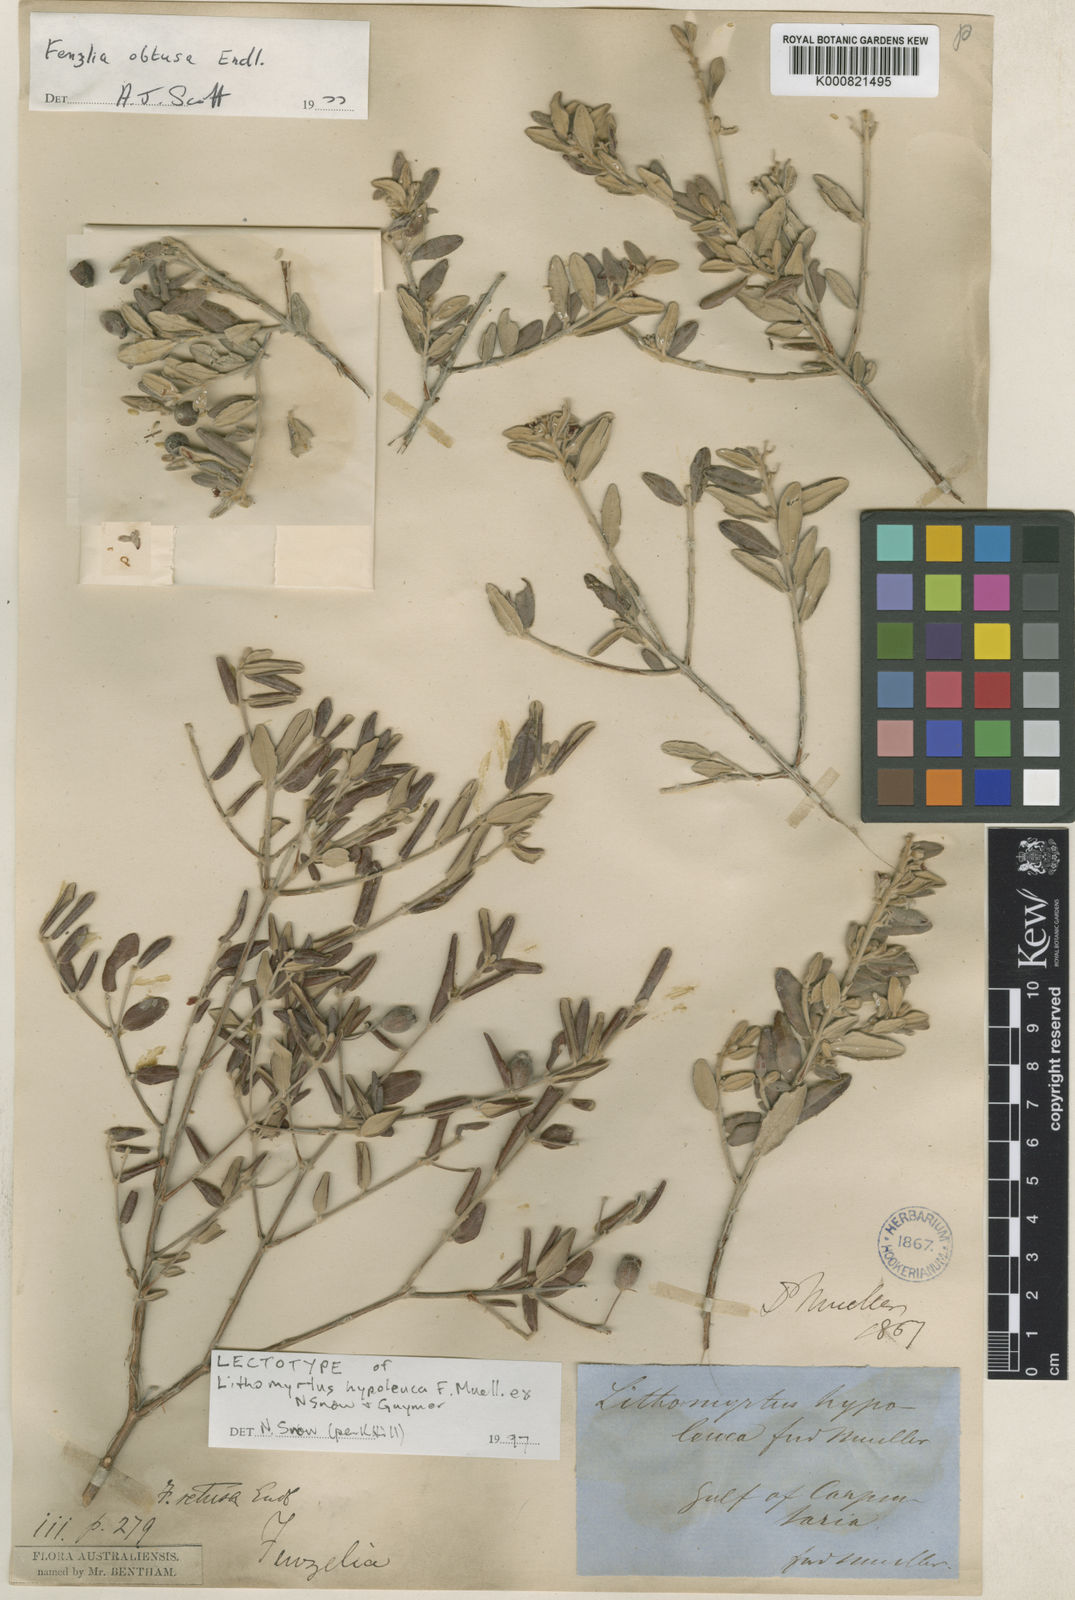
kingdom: Plantae
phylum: Tracheophyta
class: Magnoliopsida
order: Myrtales
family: Myrtaceae
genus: Lithomyrtus
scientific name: Lithomyrtus hypoleuca
